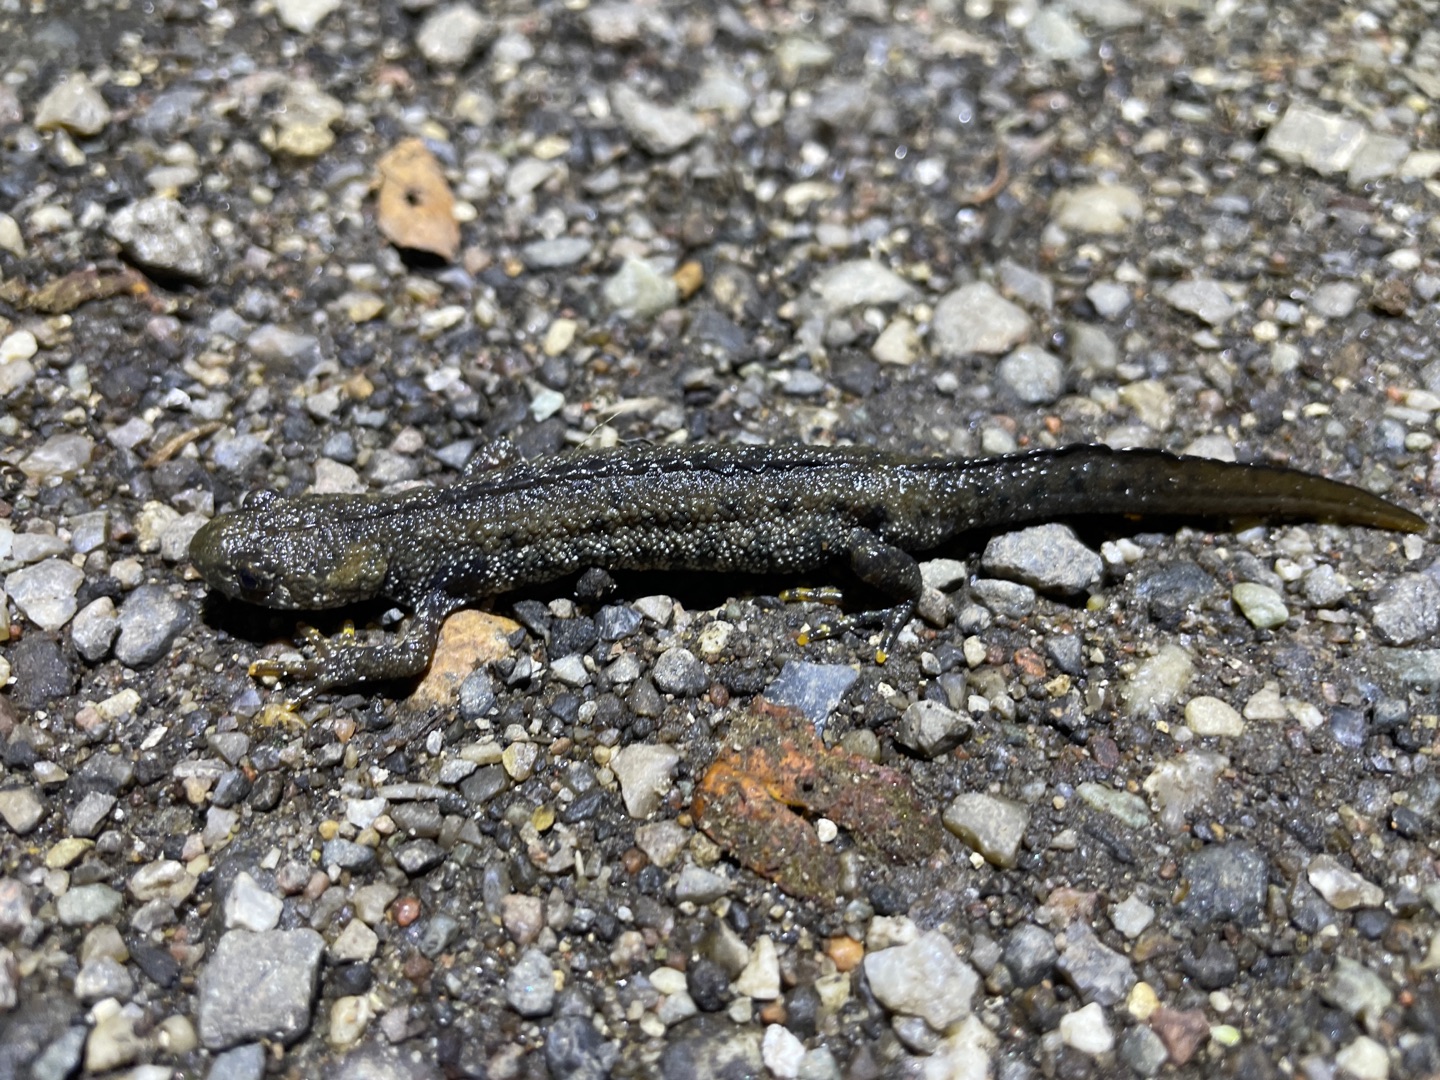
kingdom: Animalia
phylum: Chordata
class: Amphibia
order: Caudata
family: Salamandridae
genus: Triturus
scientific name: Triturus cristatus
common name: Stor vandsalamander
